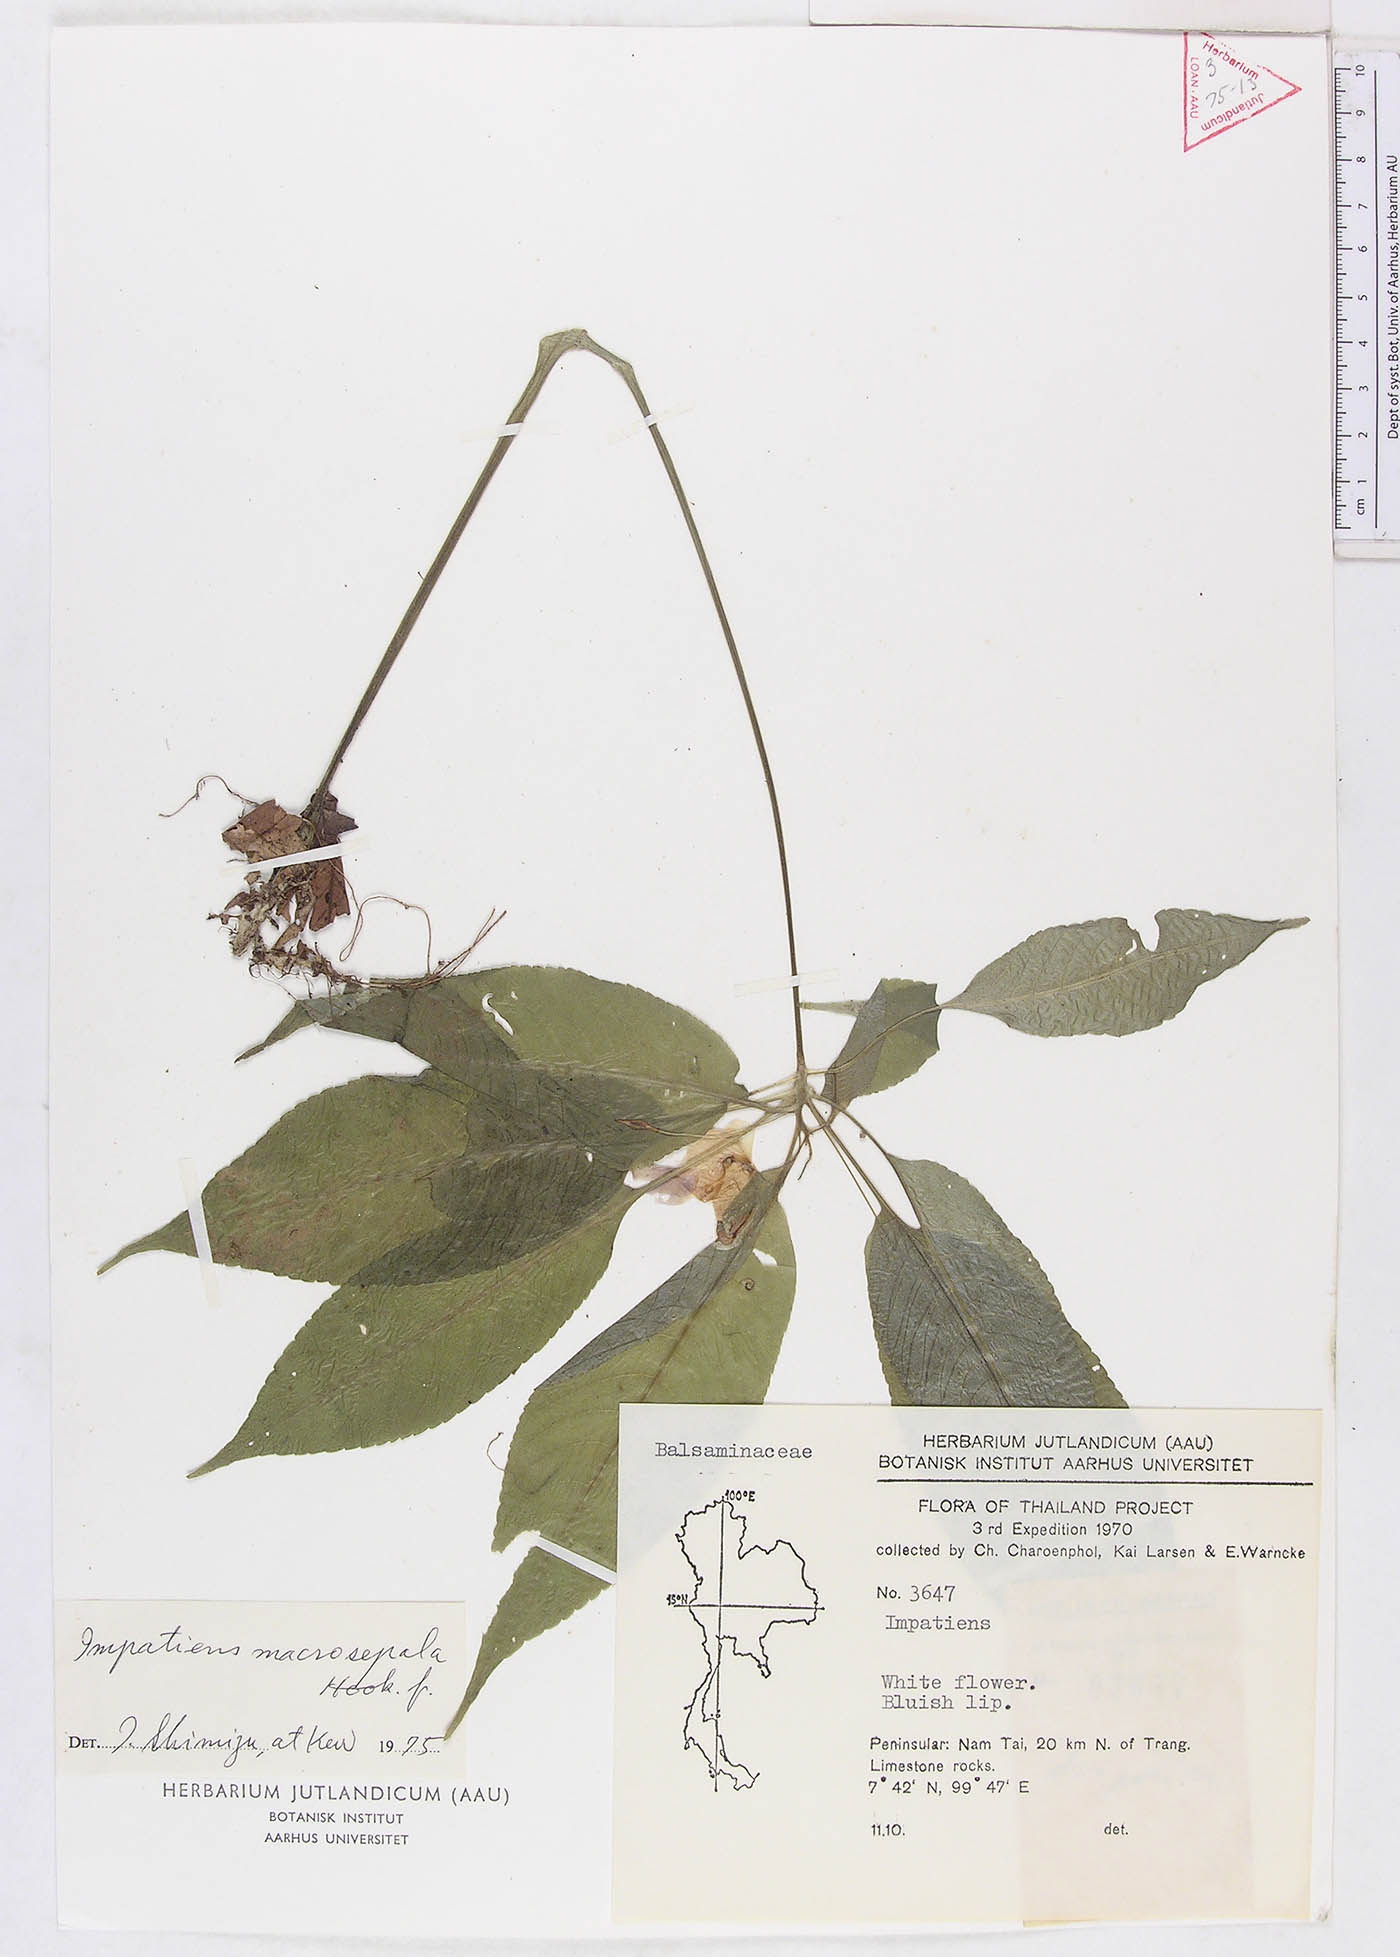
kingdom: Plantae
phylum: Tracheophyta
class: Magnoliopsida
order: Ericales
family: Balsaminaceae
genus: Impatiens
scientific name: Impatiens vaughanii
